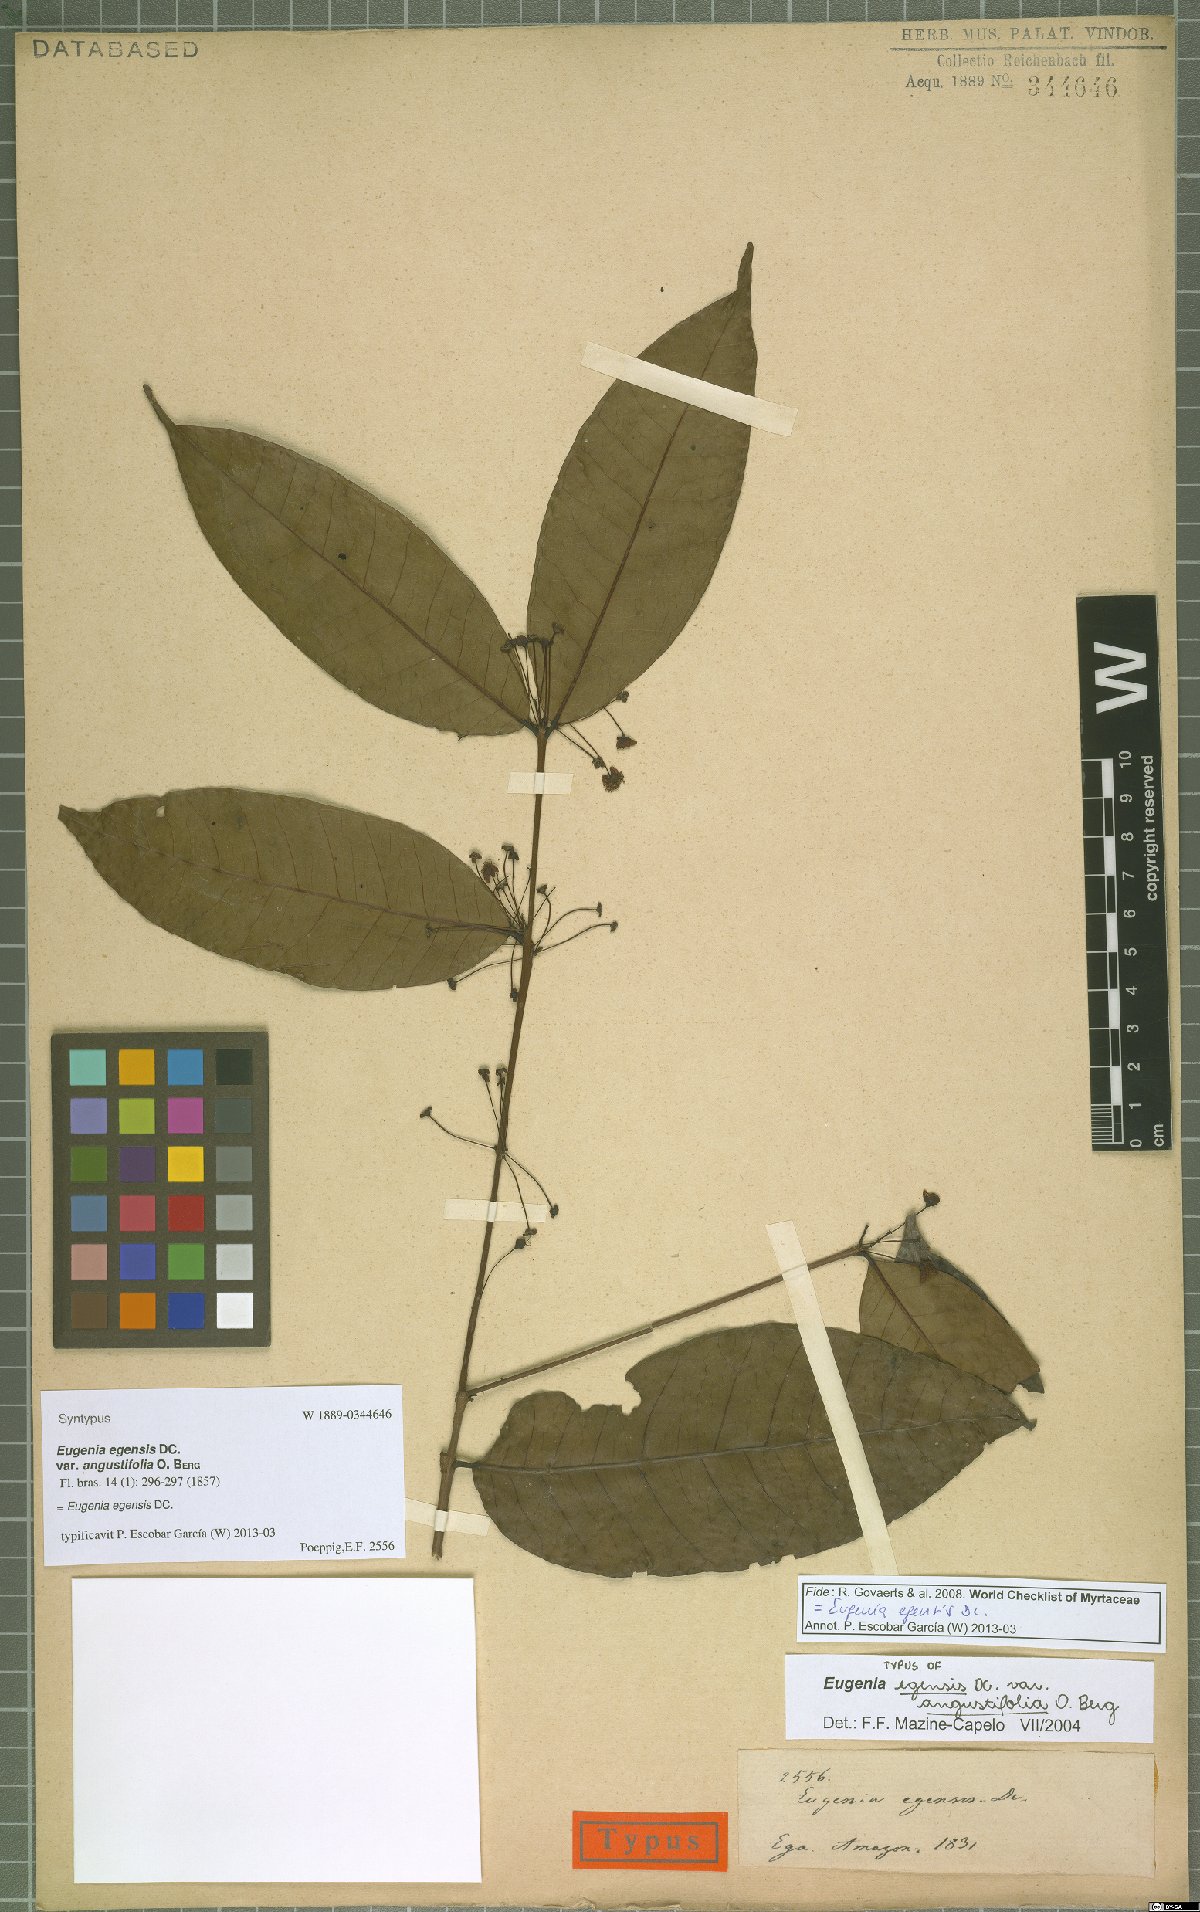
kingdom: Plantae
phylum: Tracheophyta
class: Magnoliopsida
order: Myrtales
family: Myrtaceae
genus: Eugenia
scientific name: Eugenia egensis
